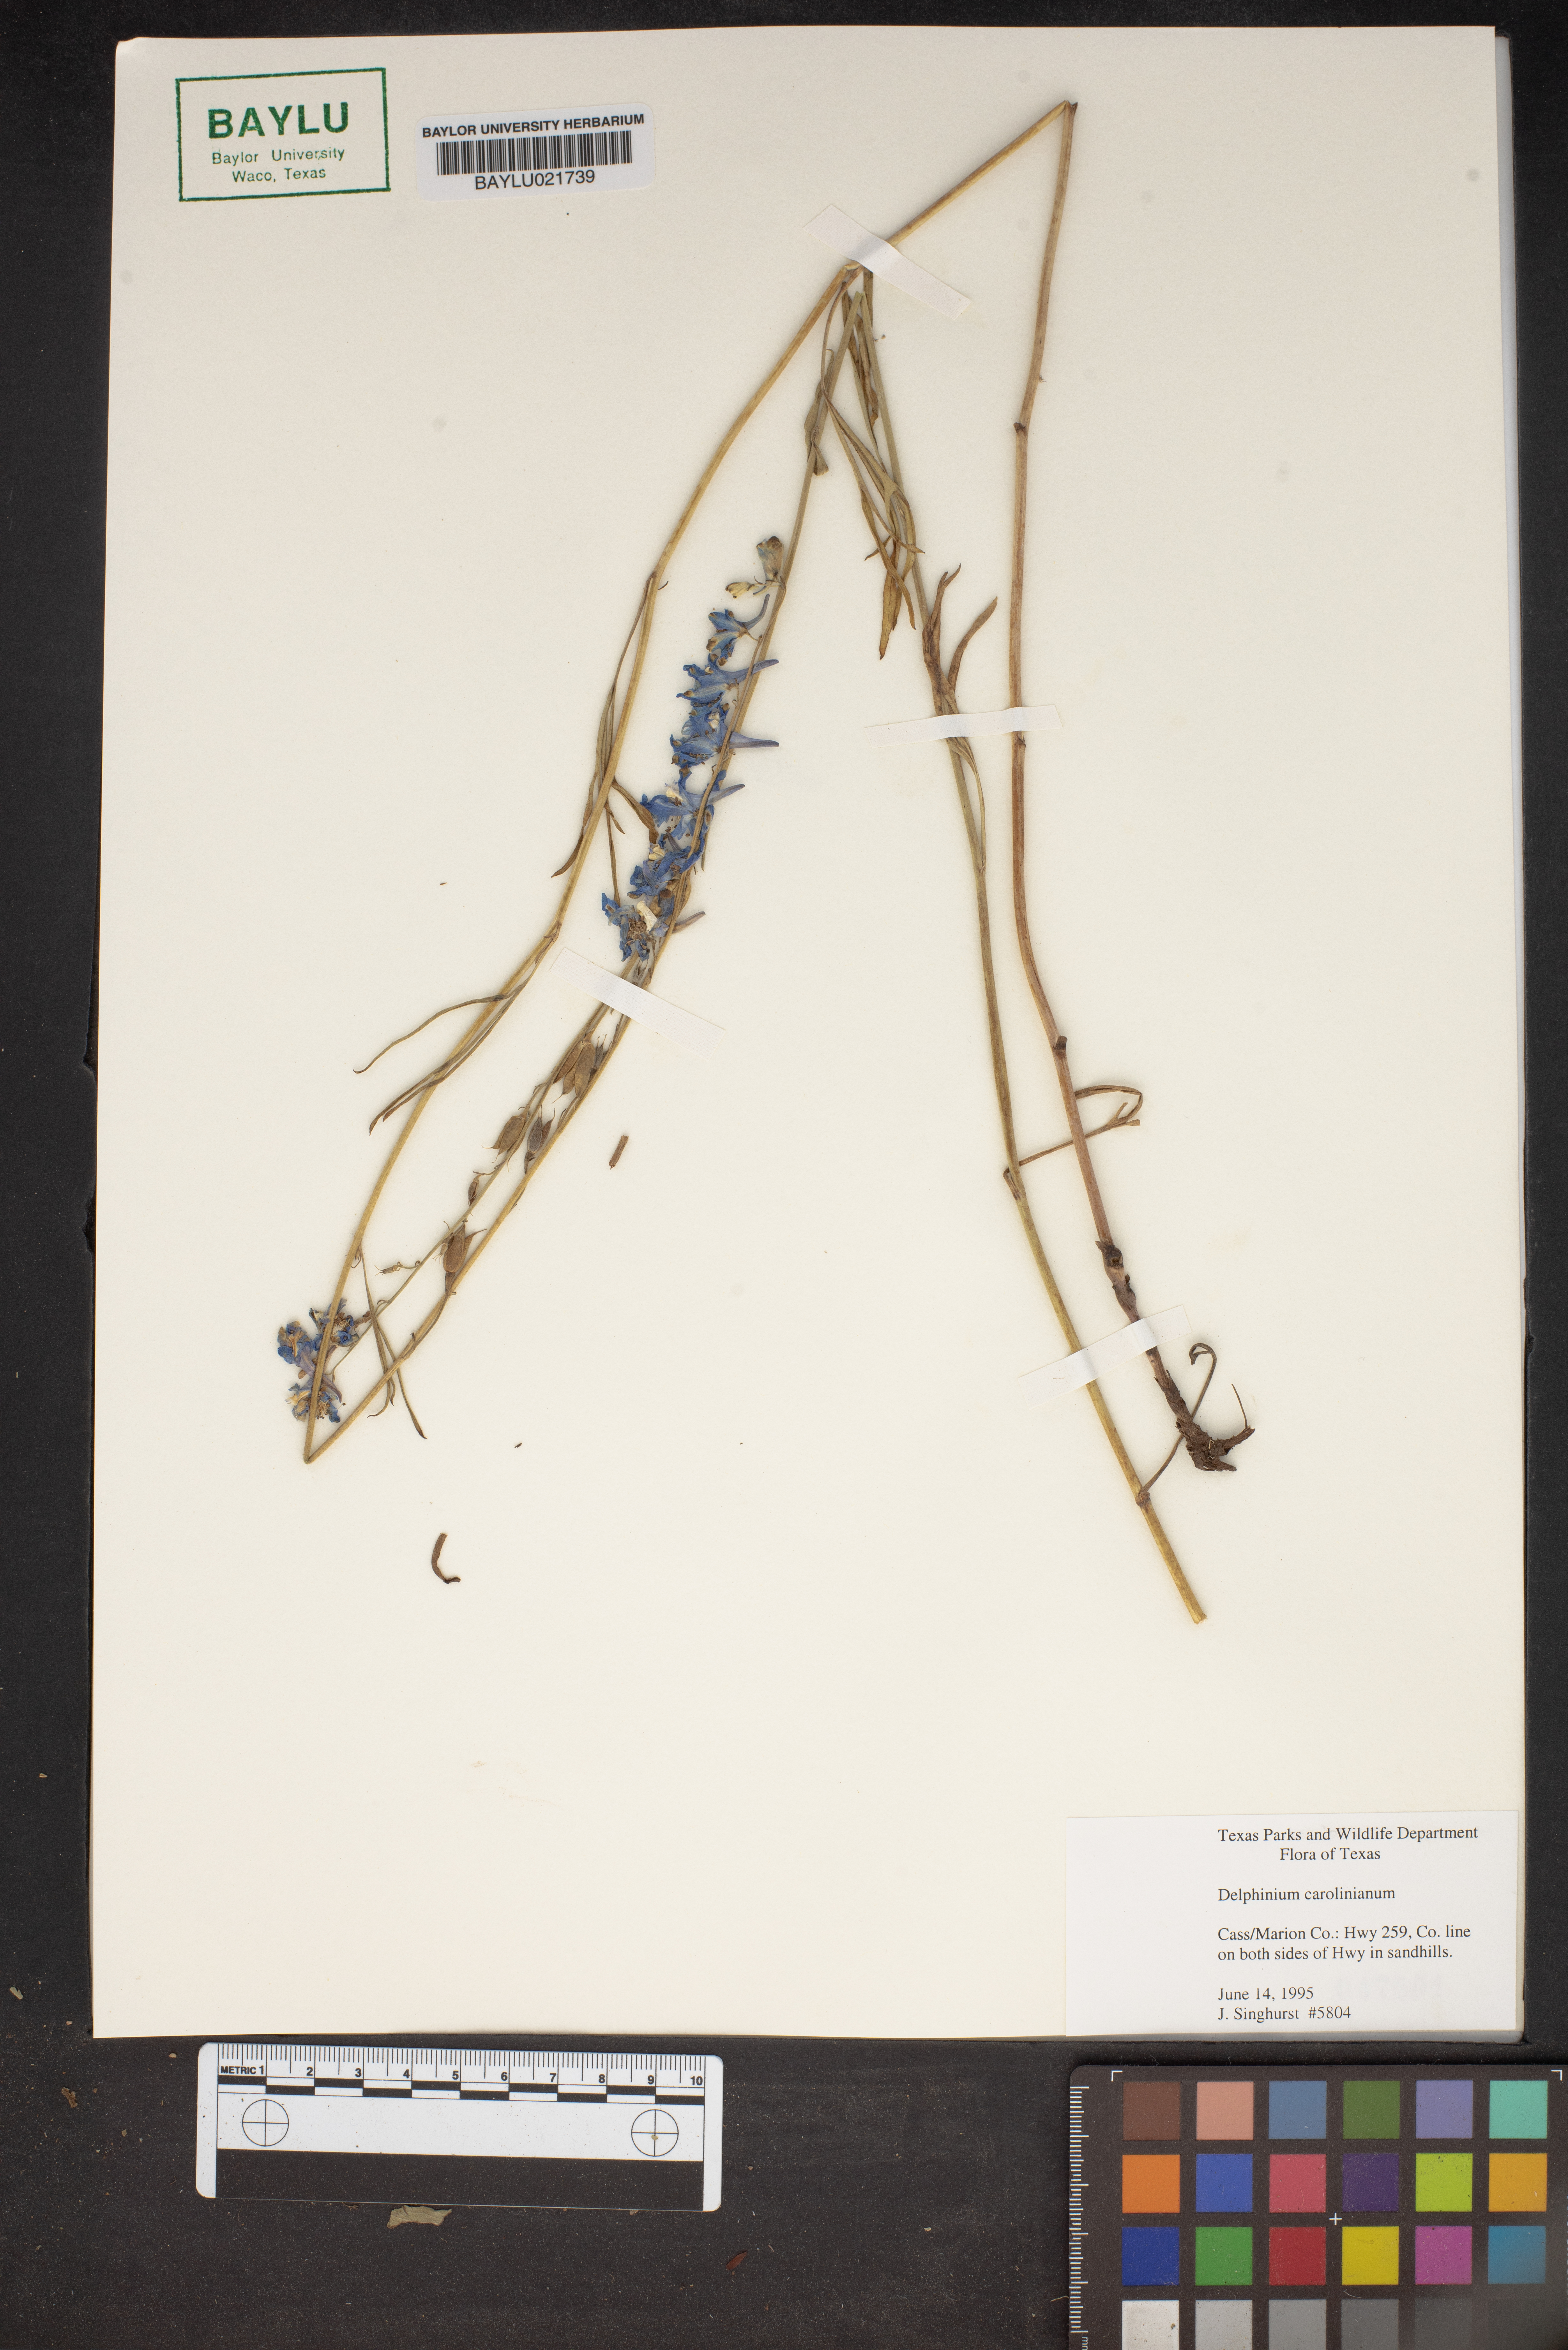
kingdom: Plantae
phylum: Tracheophyta
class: Magnoliopsida
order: Ranunculales
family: Ranunculaceae
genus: Delphinium
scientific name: Delphinium carolinianum
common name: Carolina larkspur
